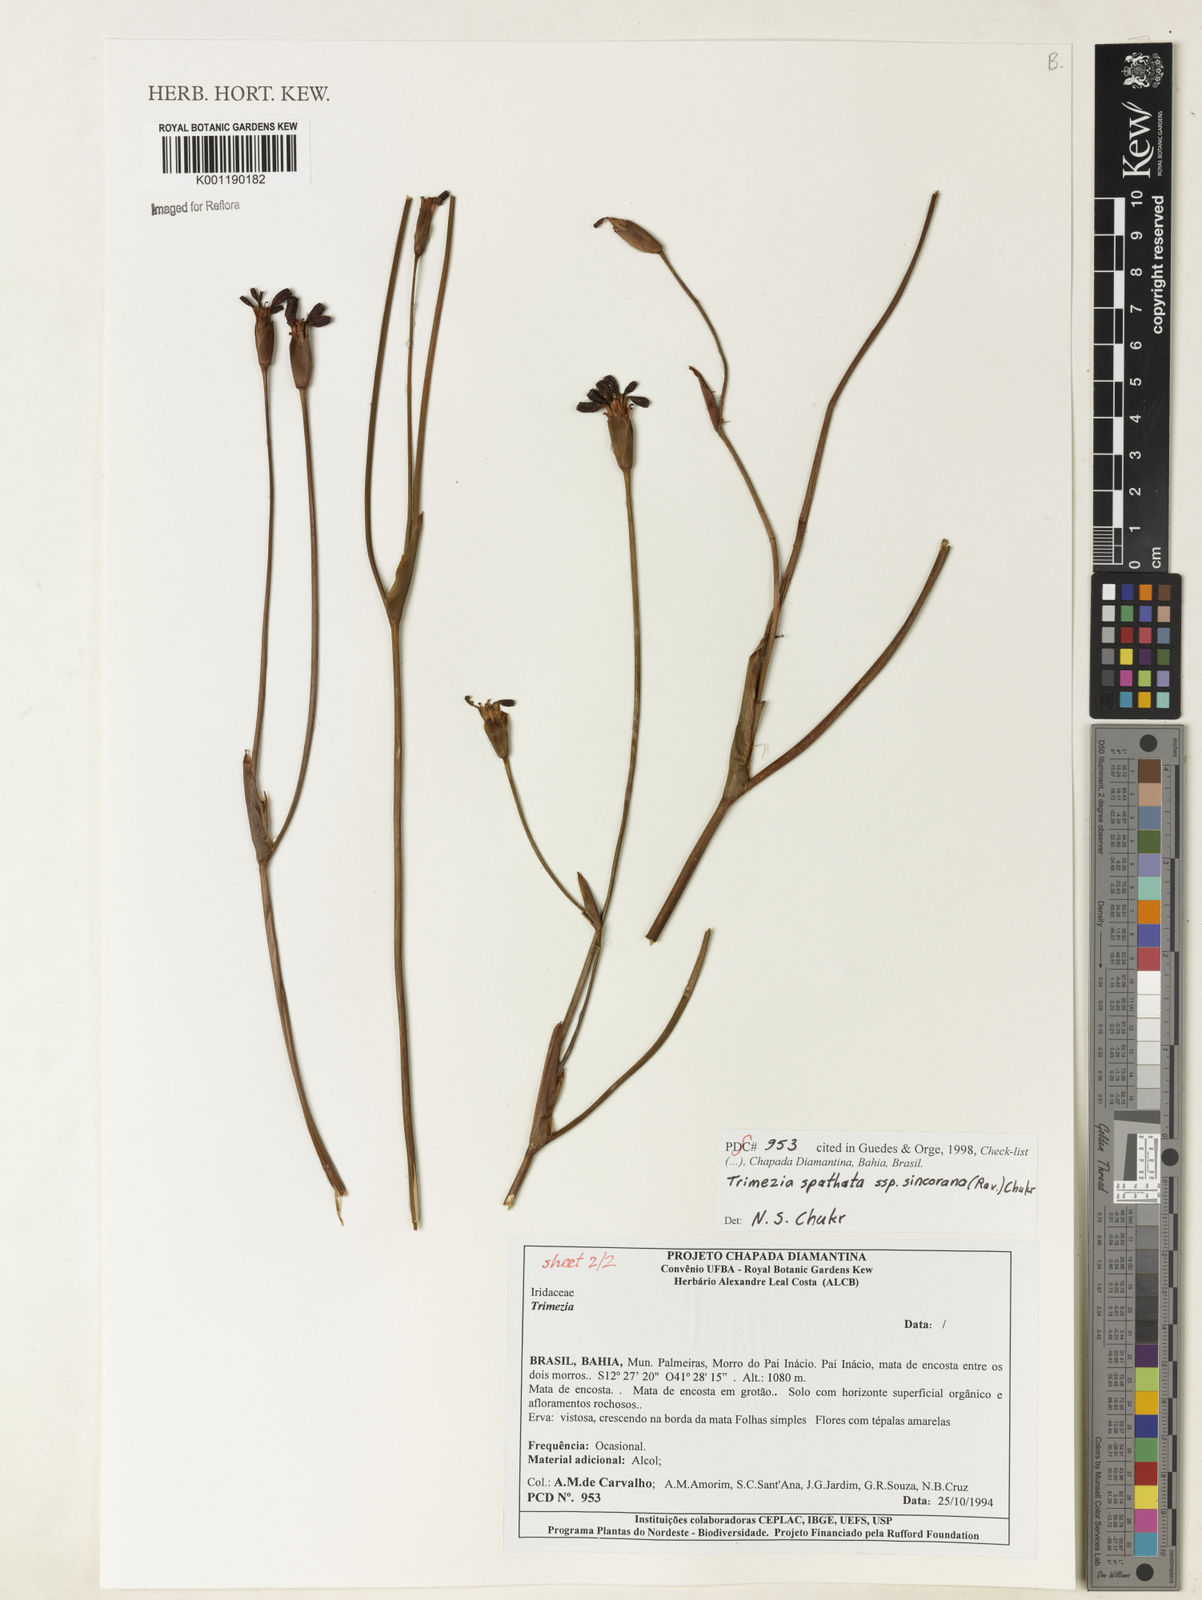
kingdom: Plantae
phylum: Tracheophyta
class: Liliopsida
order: Asparagales
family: Iridaceae
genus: Trimezia
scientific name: Trimezia spathata
